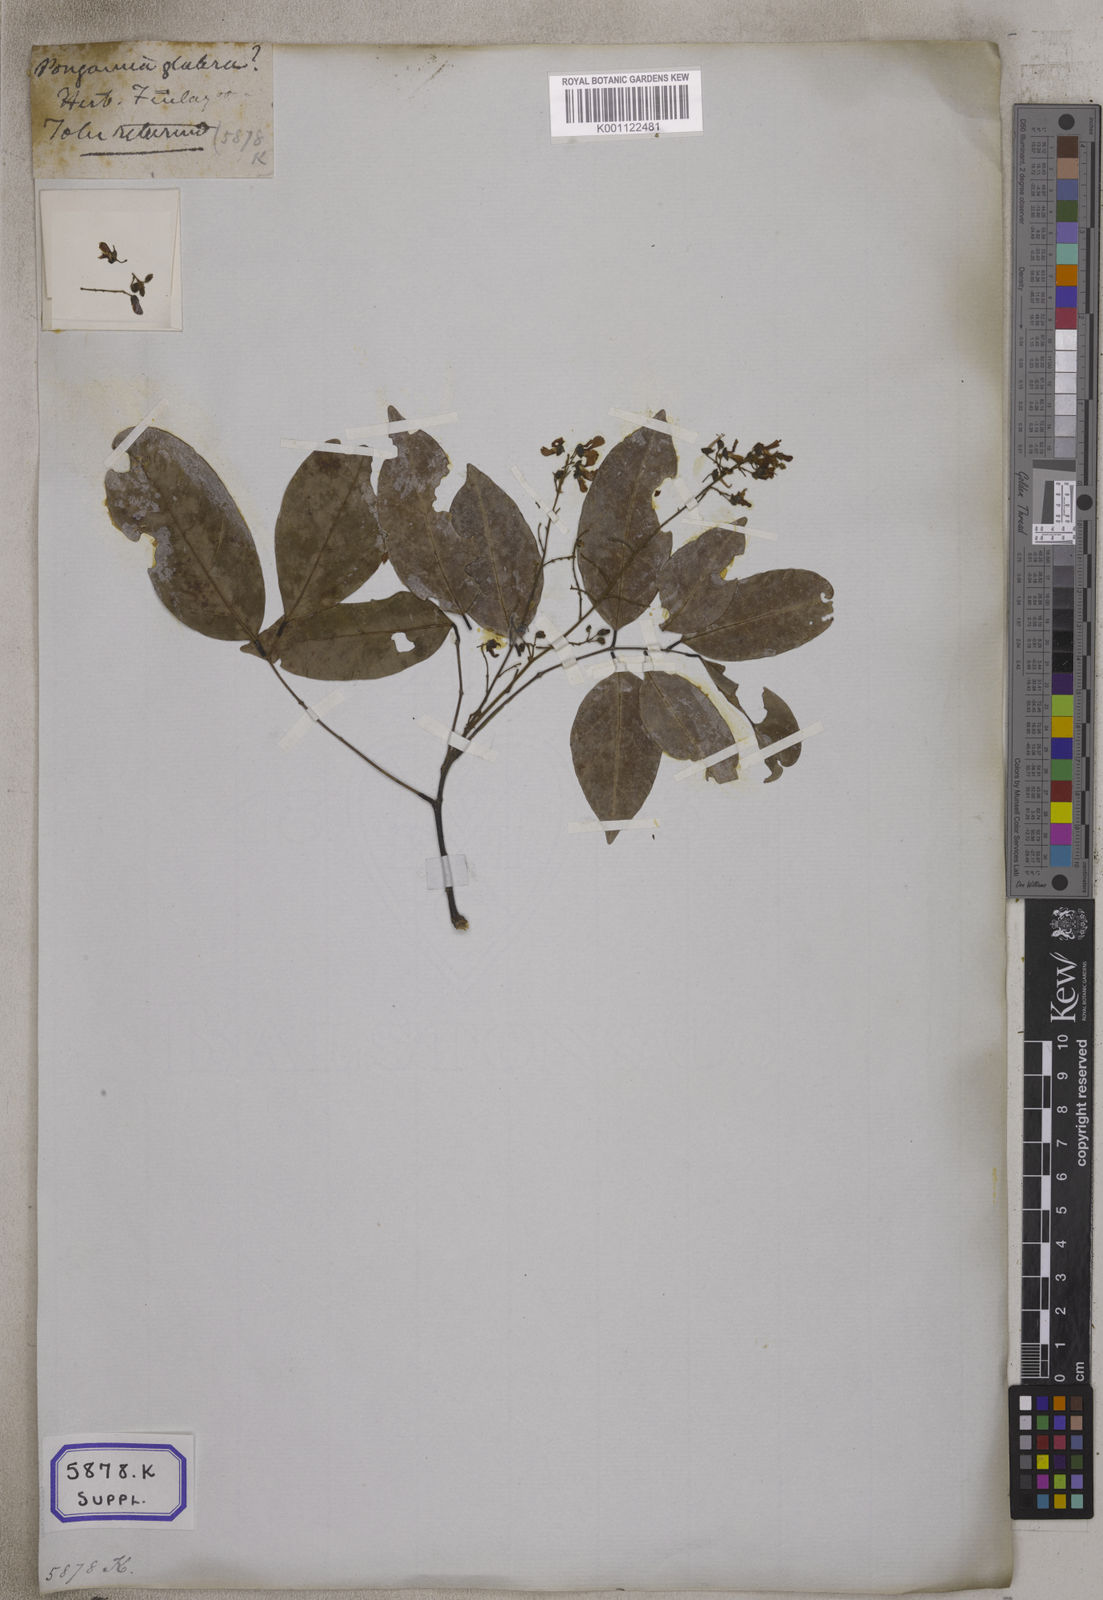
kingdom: Plantae
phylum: Tracheophyta
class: Magnoliopsida
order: Fabales
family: Fabaceae
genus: Pongamia
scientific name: Pongamia pinnata
